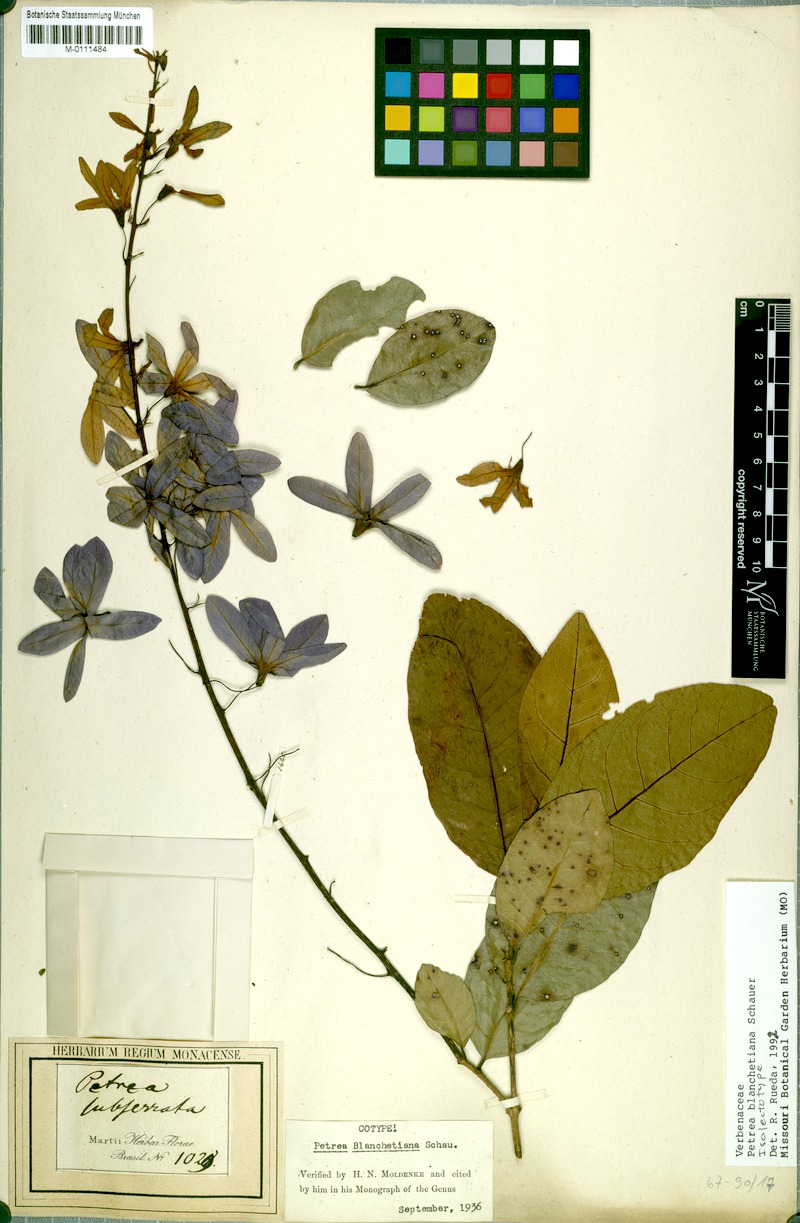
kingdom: Plantae
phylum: Tracheophyta
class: Magnoliopsida
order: Lamiales
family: Verbenaceae
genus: Petrea
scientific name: Petrea blanchetiana
